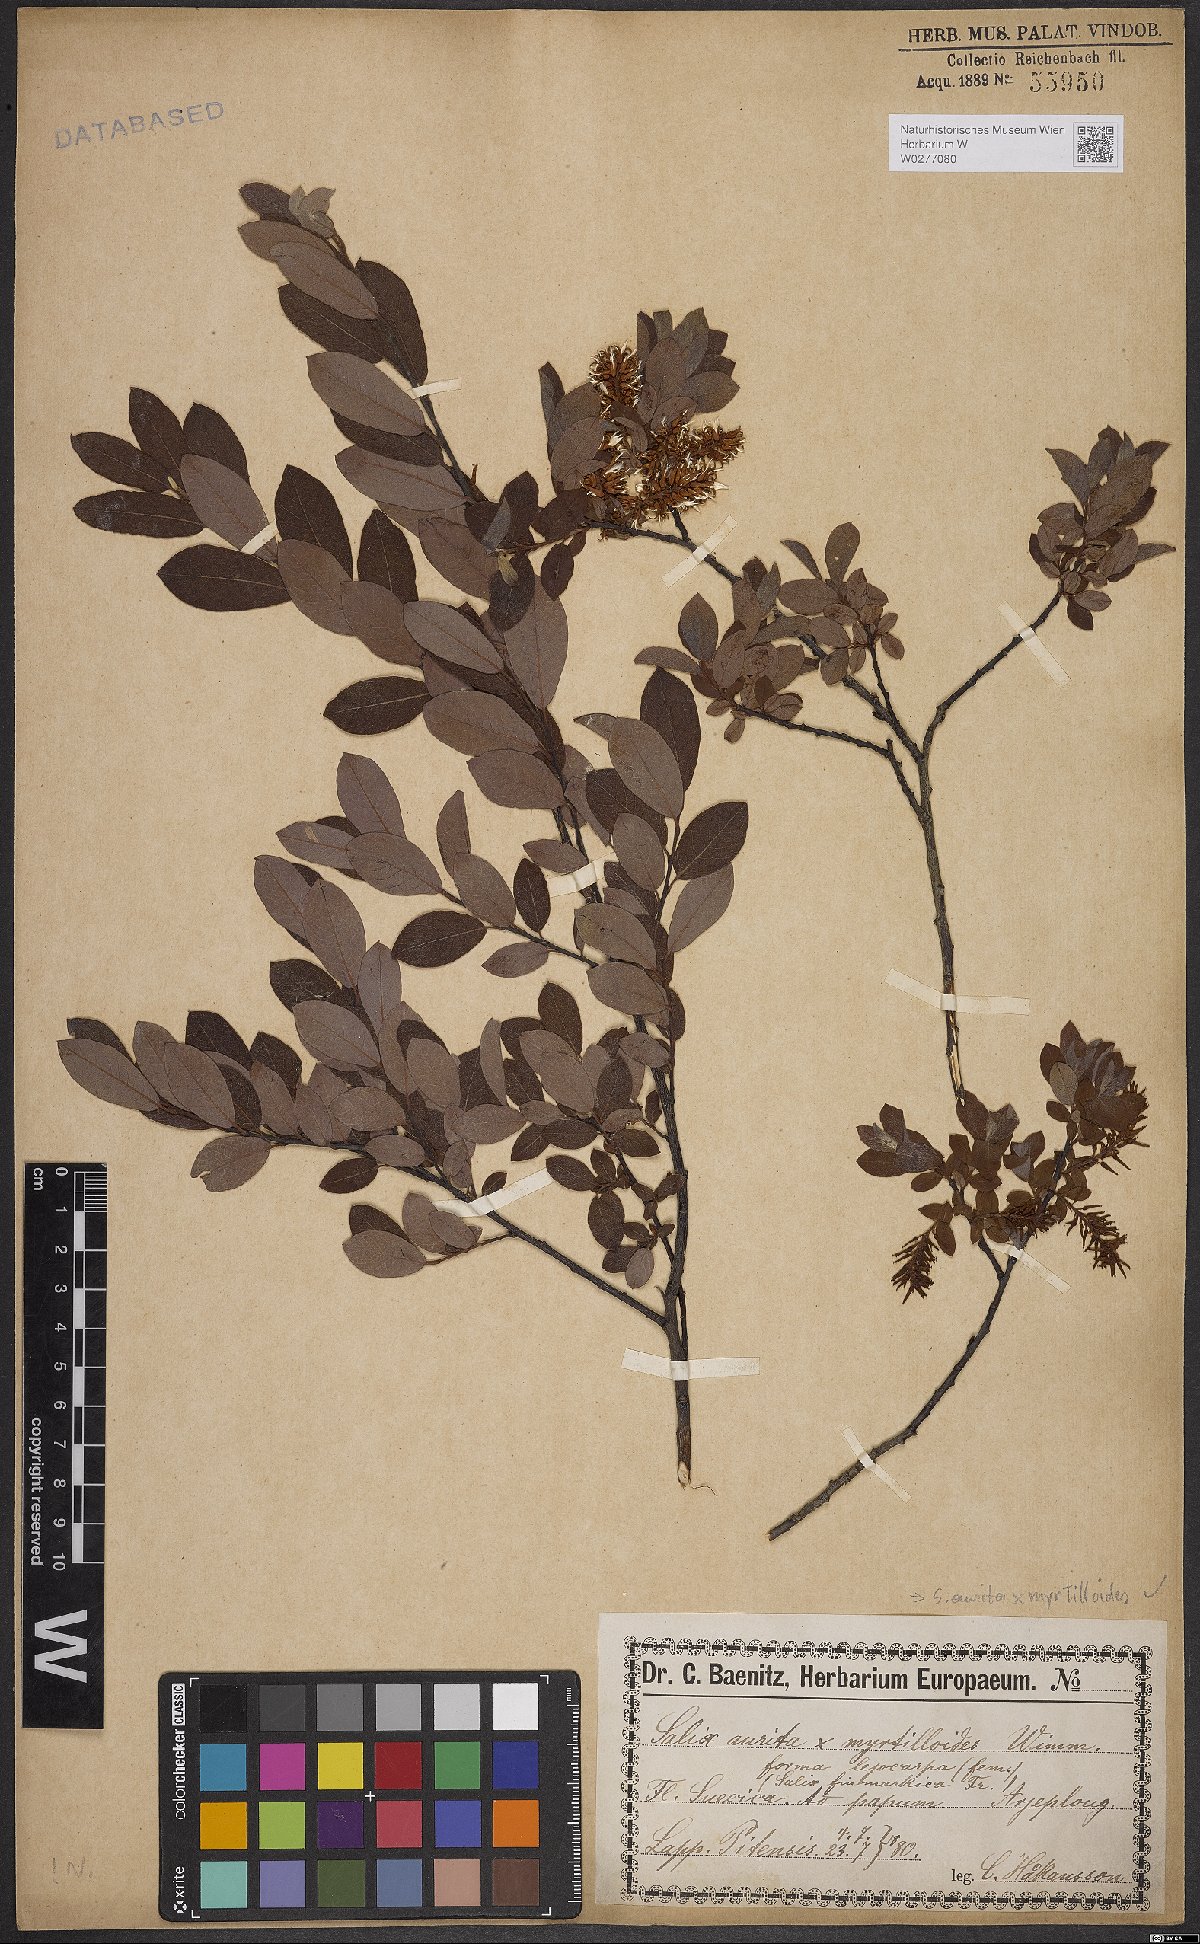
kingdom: Plantae
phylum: Tracheophyta
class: Magnoliopsida
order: Malpighiales
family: Salicaceae
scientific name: Salicaceae
